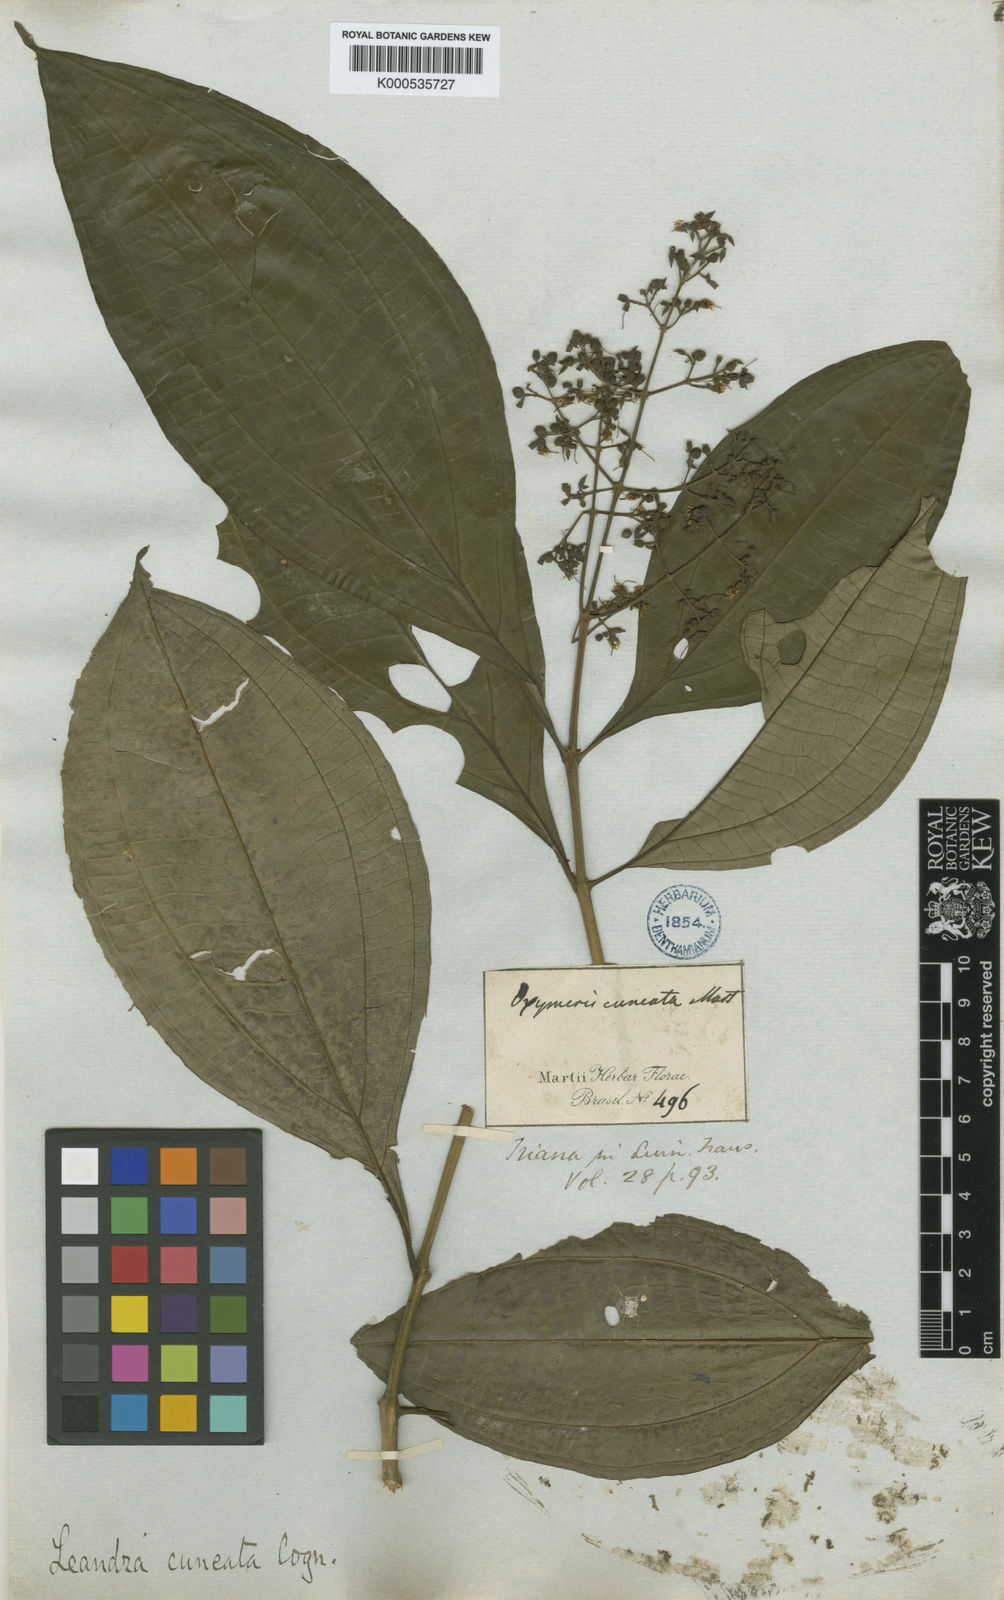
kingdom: Plantae
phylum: Tracheophyta
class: Magnoliopsida
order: Myrtales
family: Melastomataceae
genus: Miconia
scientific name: Miconia cuneatissima
